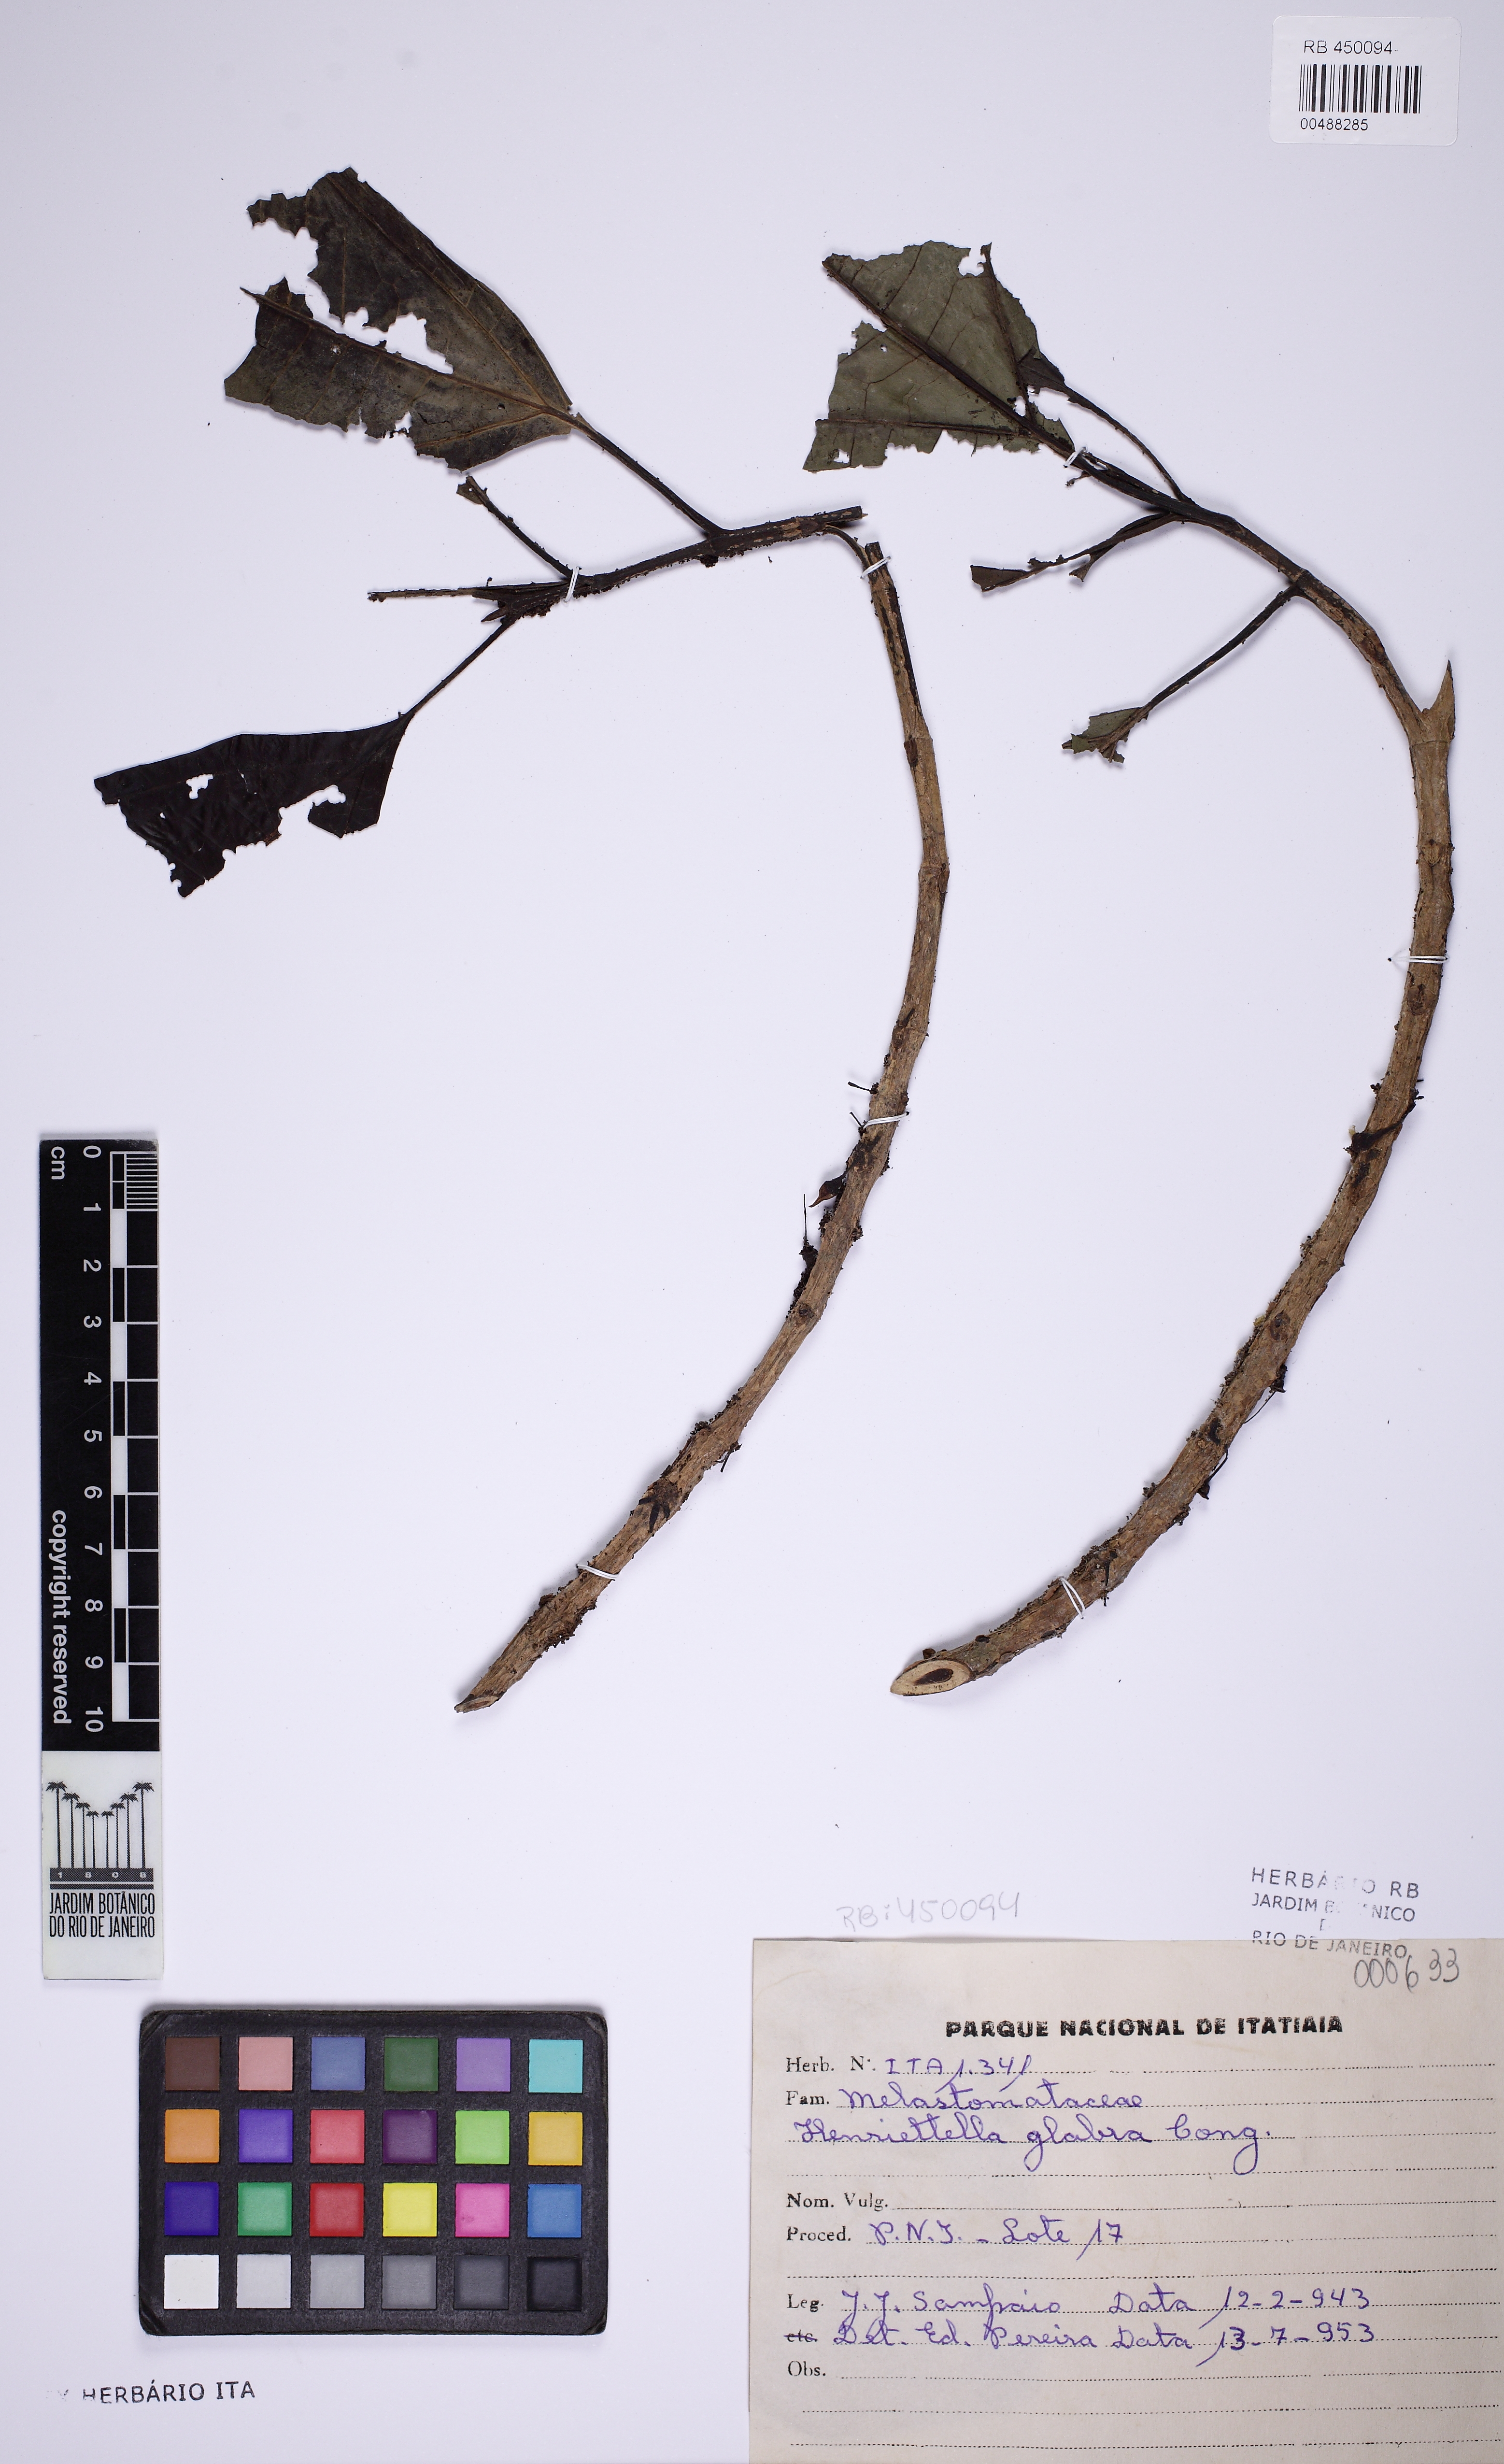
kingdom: Plantae
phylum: Tracheophyta
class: Magnoliopsida
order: Myrtales
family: Melastomataceae
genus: Henriettea
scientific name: Henriettea glabra
